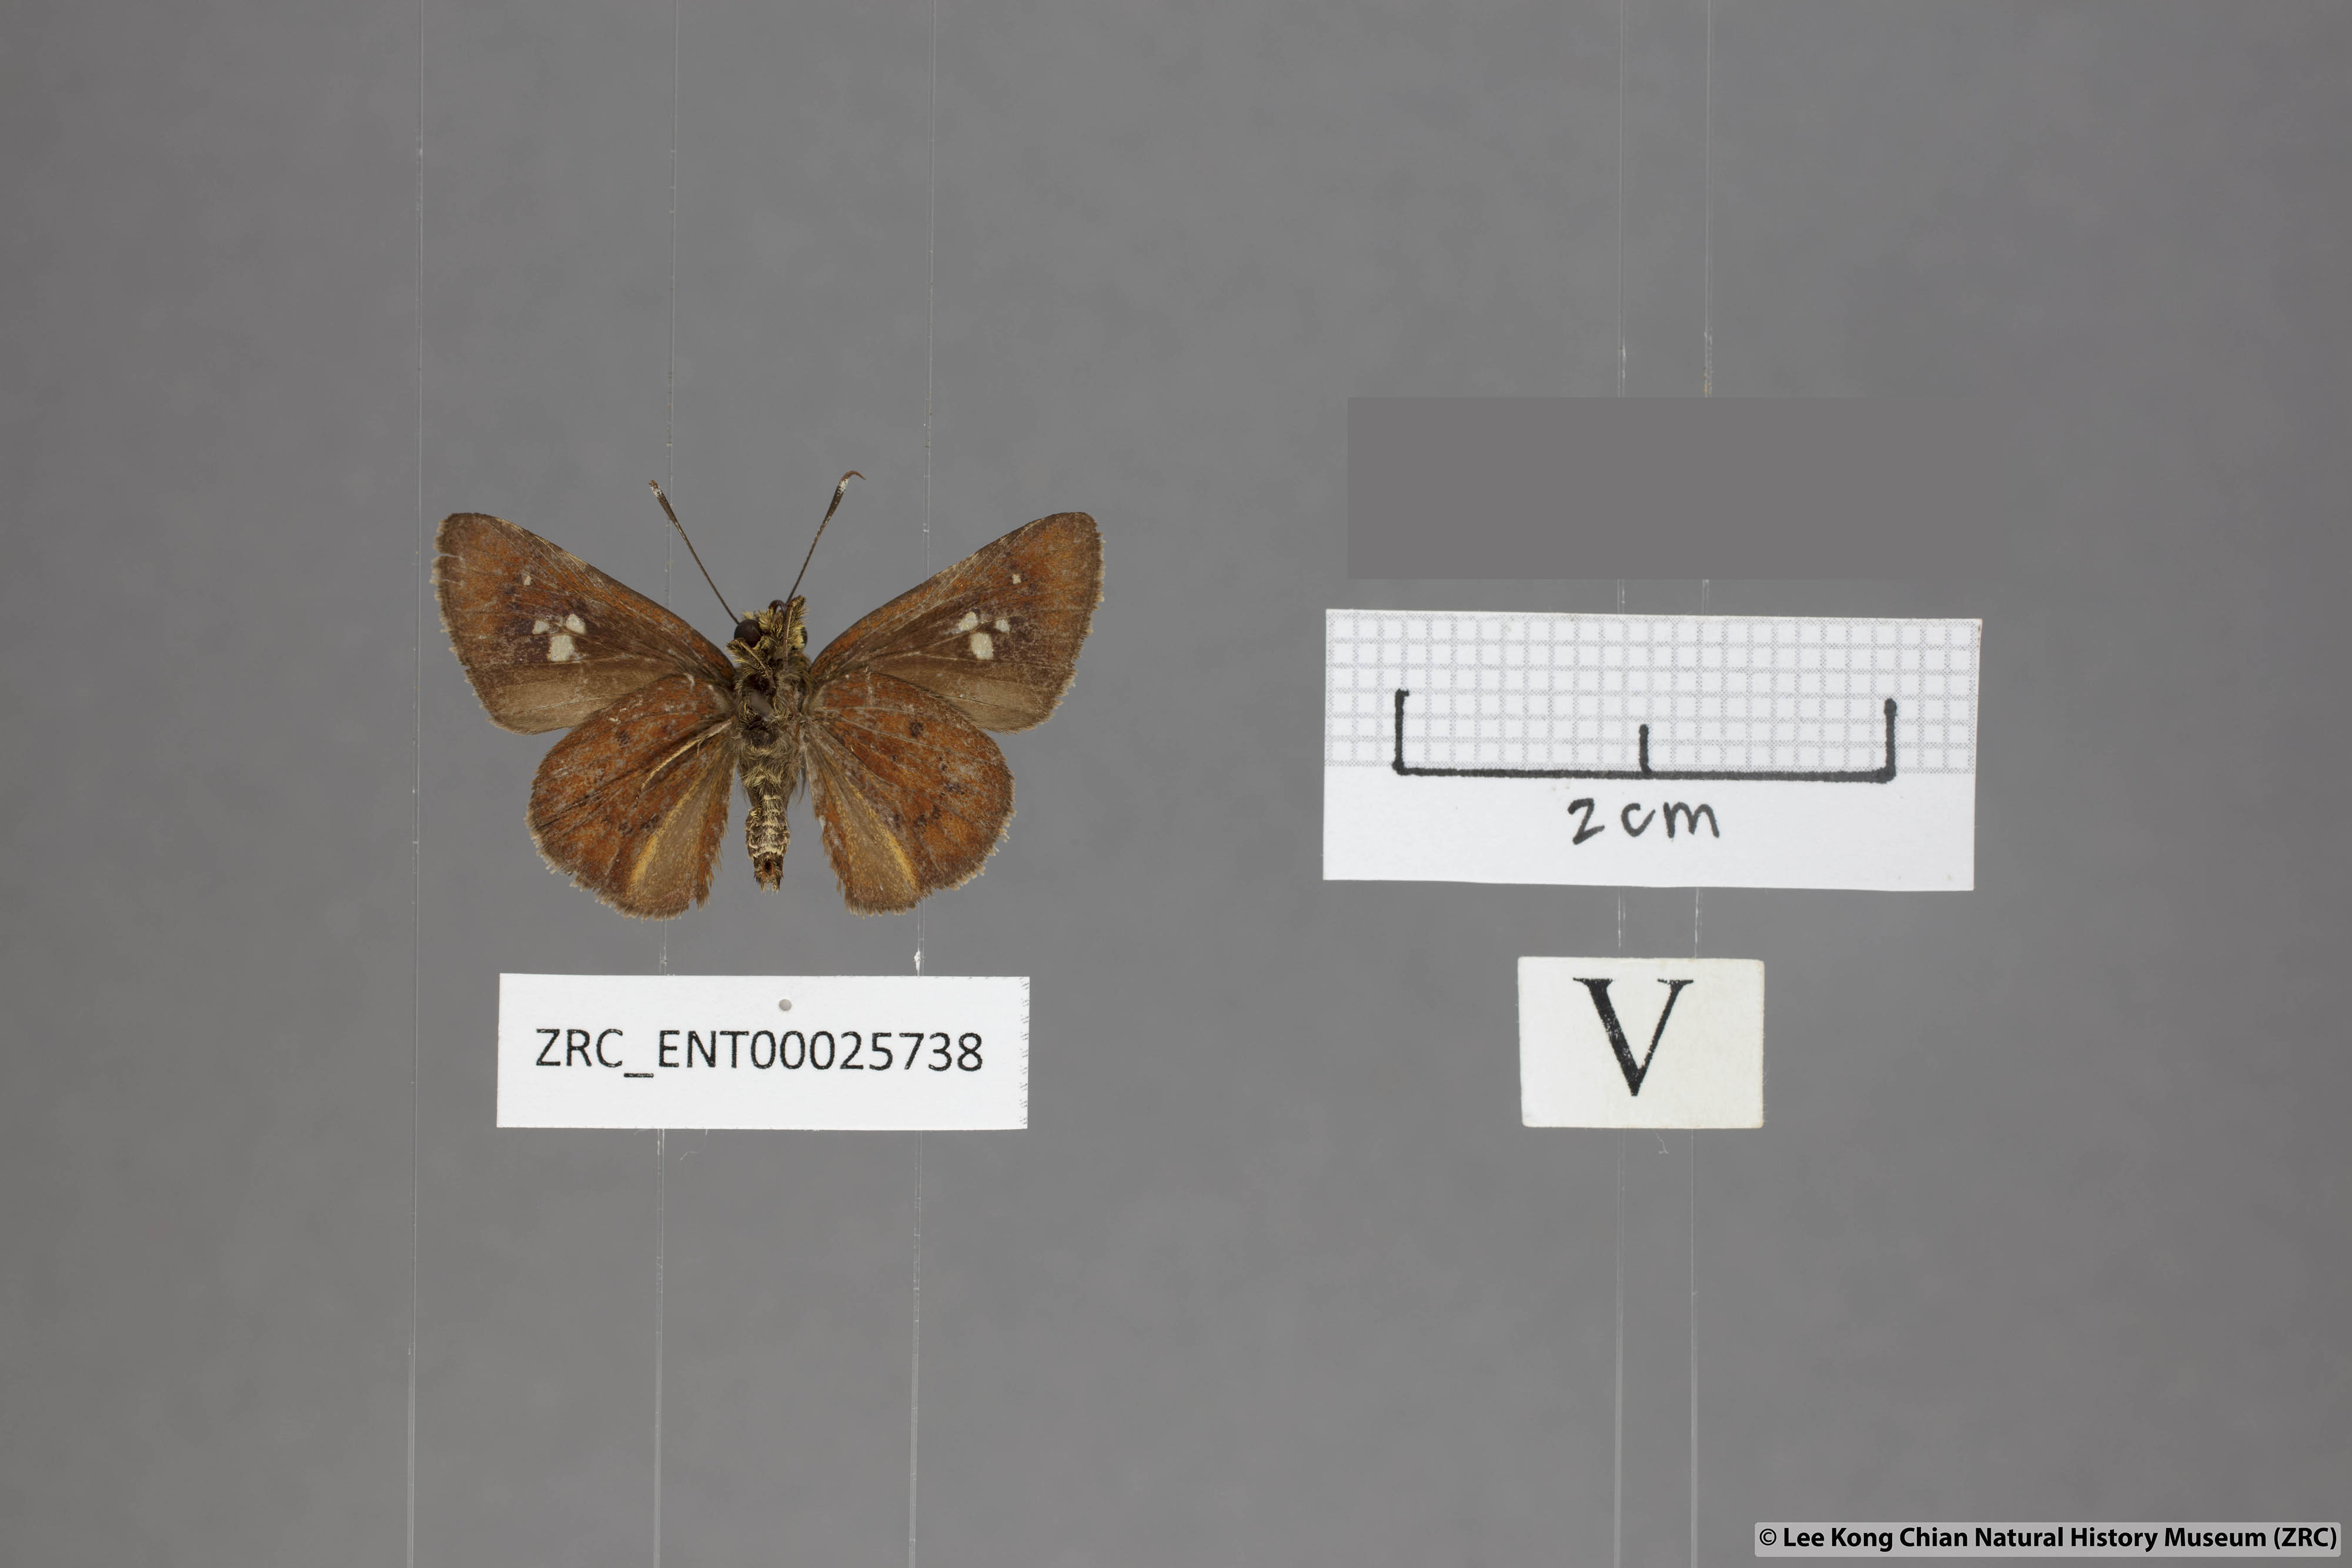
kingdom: Animalia
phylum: Arthropoda
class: Insecta
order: Lepidoptera
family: Hesperiidae
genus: Zographetus
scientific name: Zographetus ogygia
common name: Purple-spotted flitter
